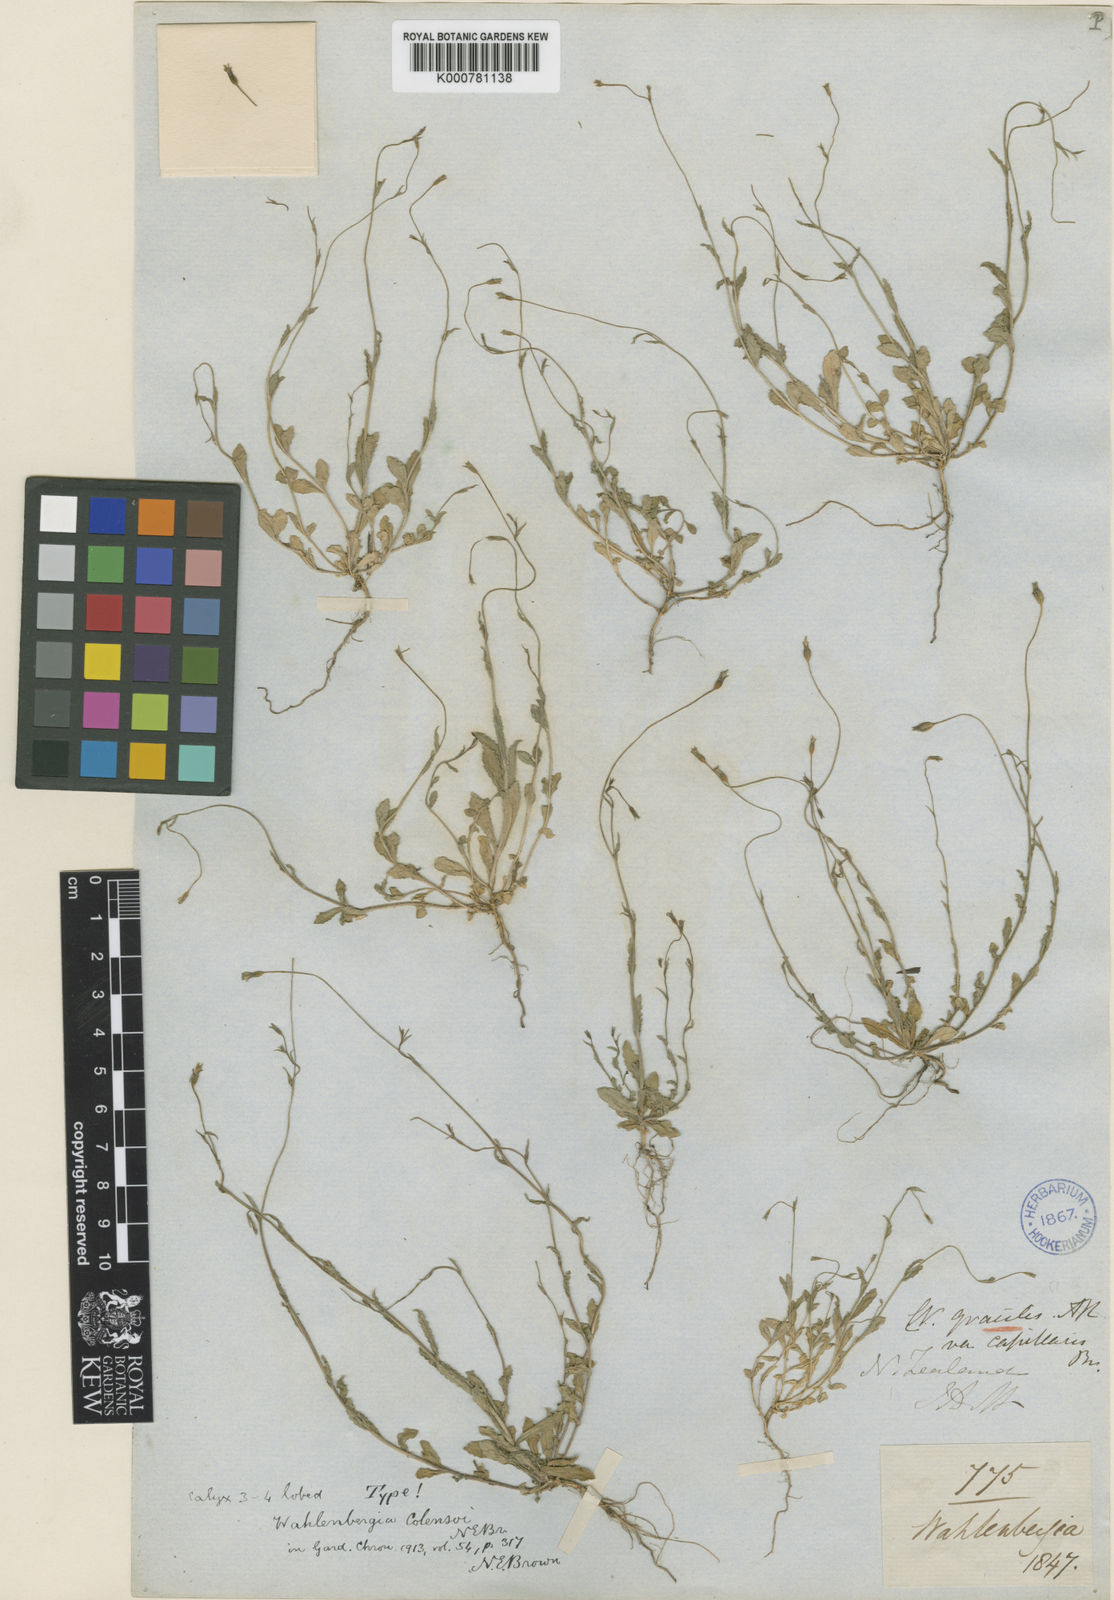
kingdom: Plantae
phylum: Tracheophyta
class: Magnoliopsida
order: Asterales
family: Campanulaceae
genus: Wahlenbergia
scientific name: Wahlenbergia colensoi
